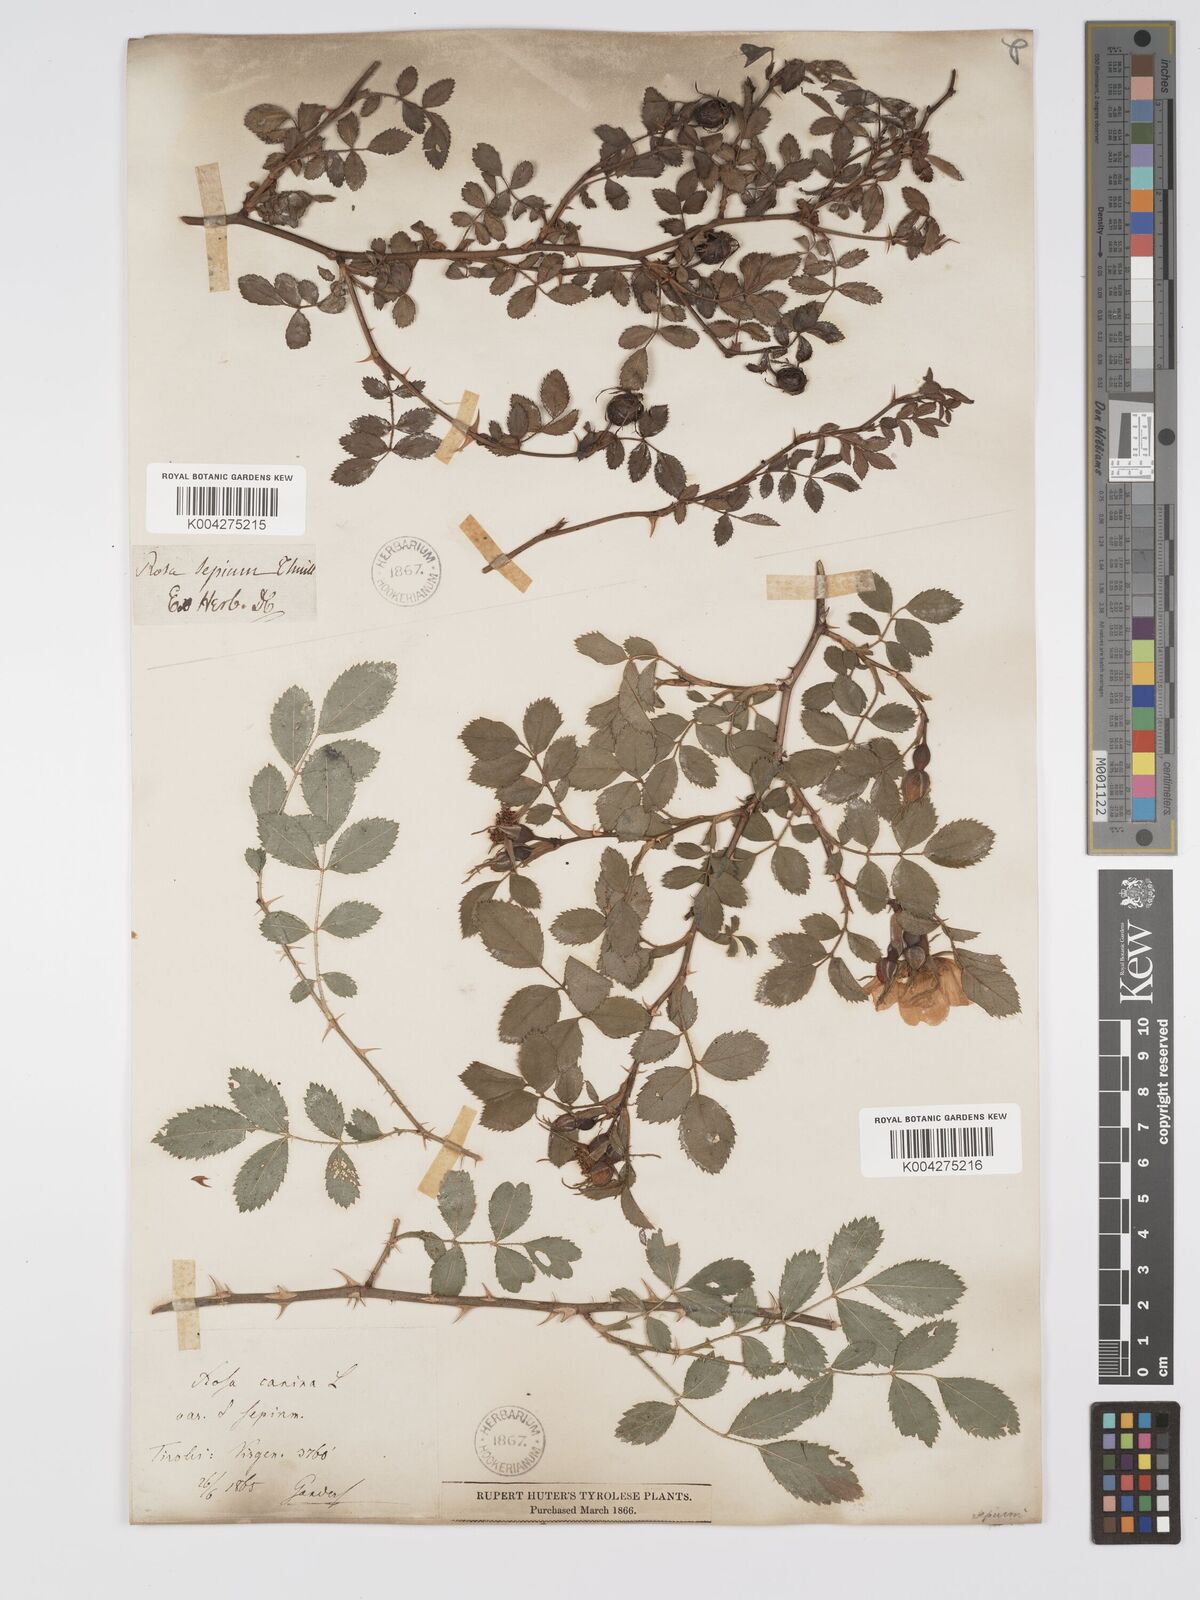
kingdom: Plantae
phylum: Tracheophyta
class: Magnoliopsida
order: Rosales
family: Rosaceae
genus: Rosa
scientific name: Rosa
